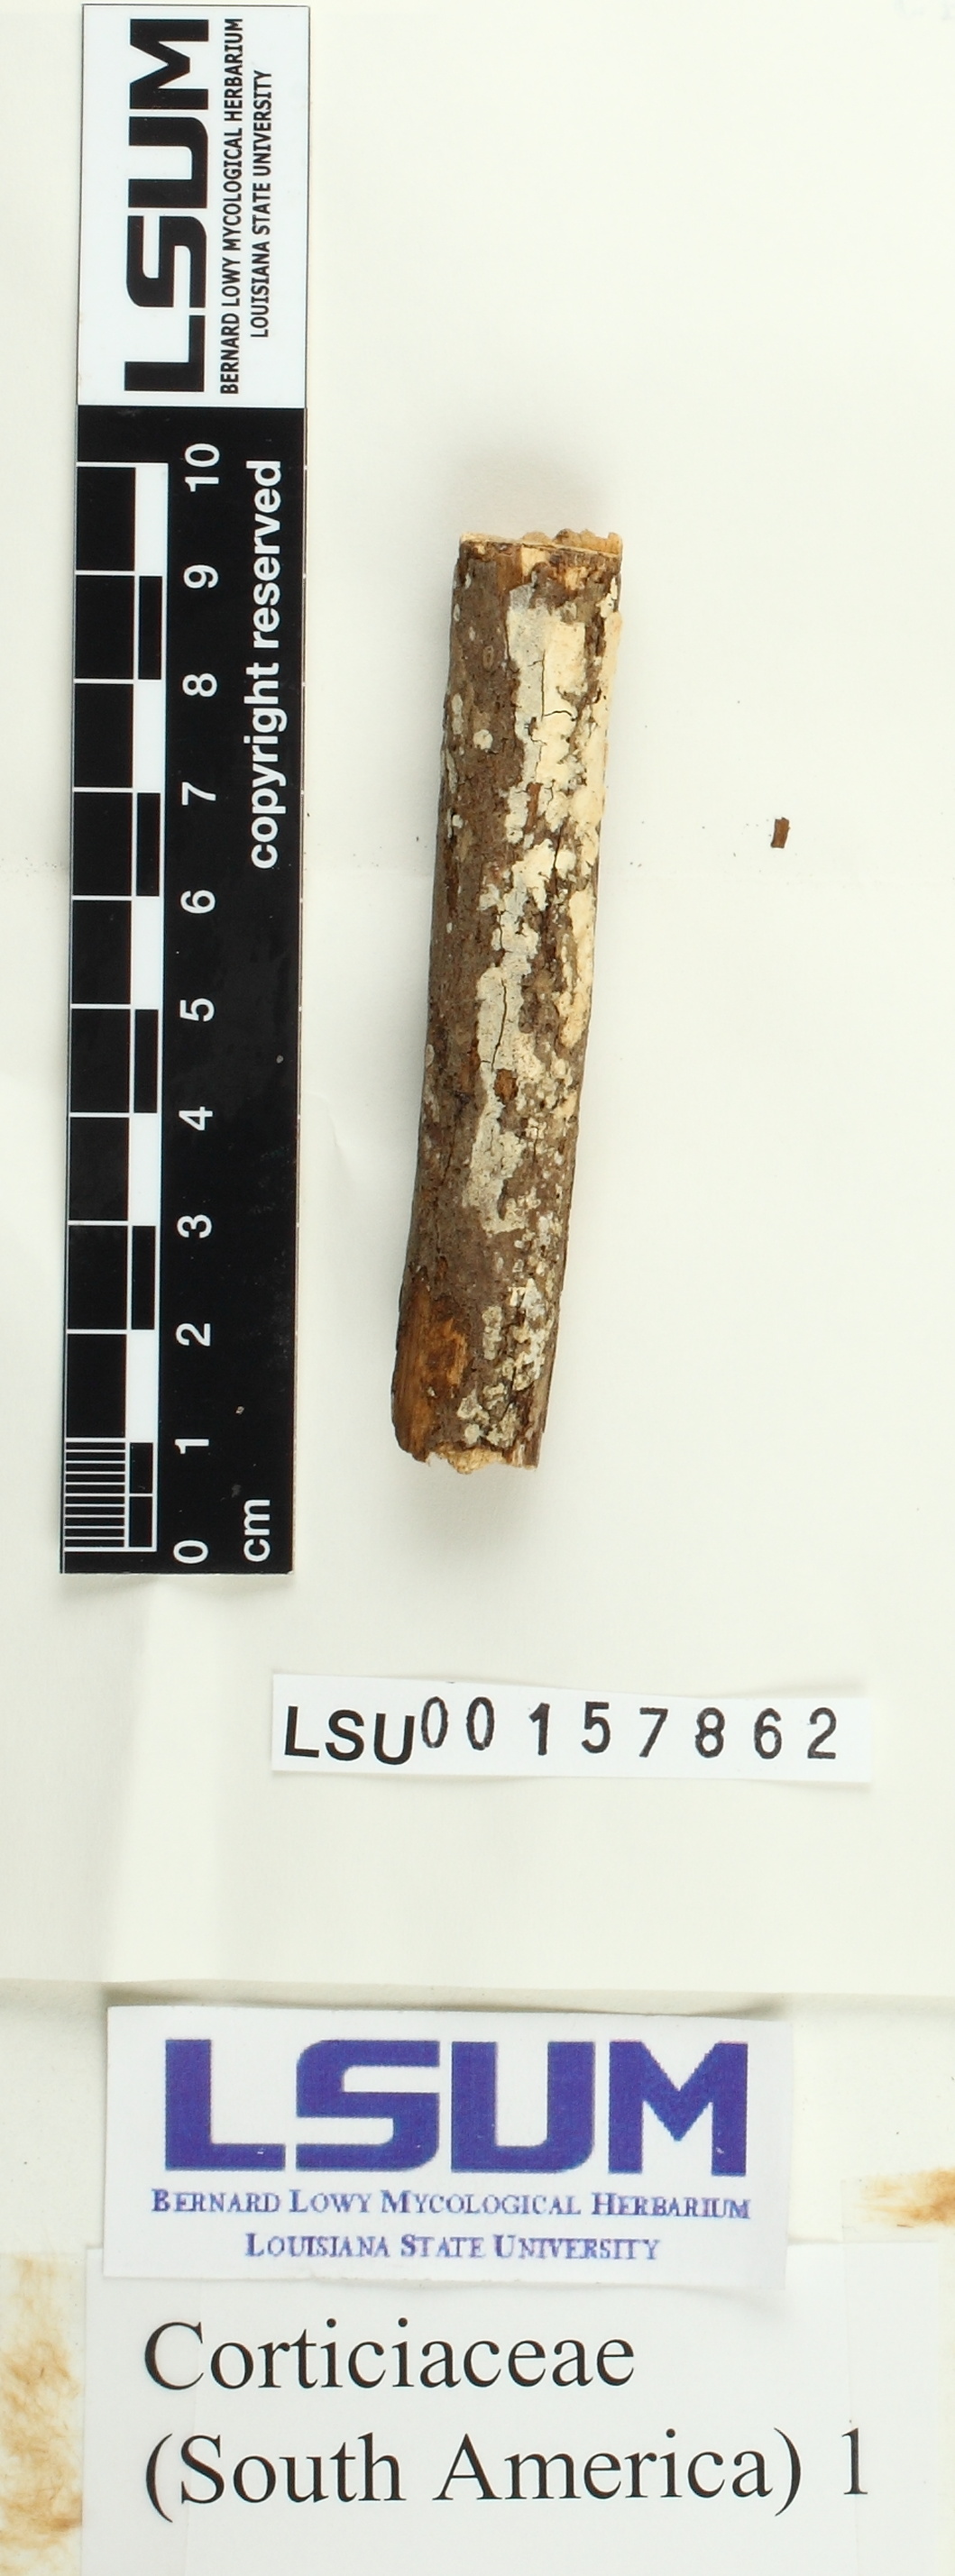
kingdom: Fungi
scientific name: Fungi
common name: Fungi
